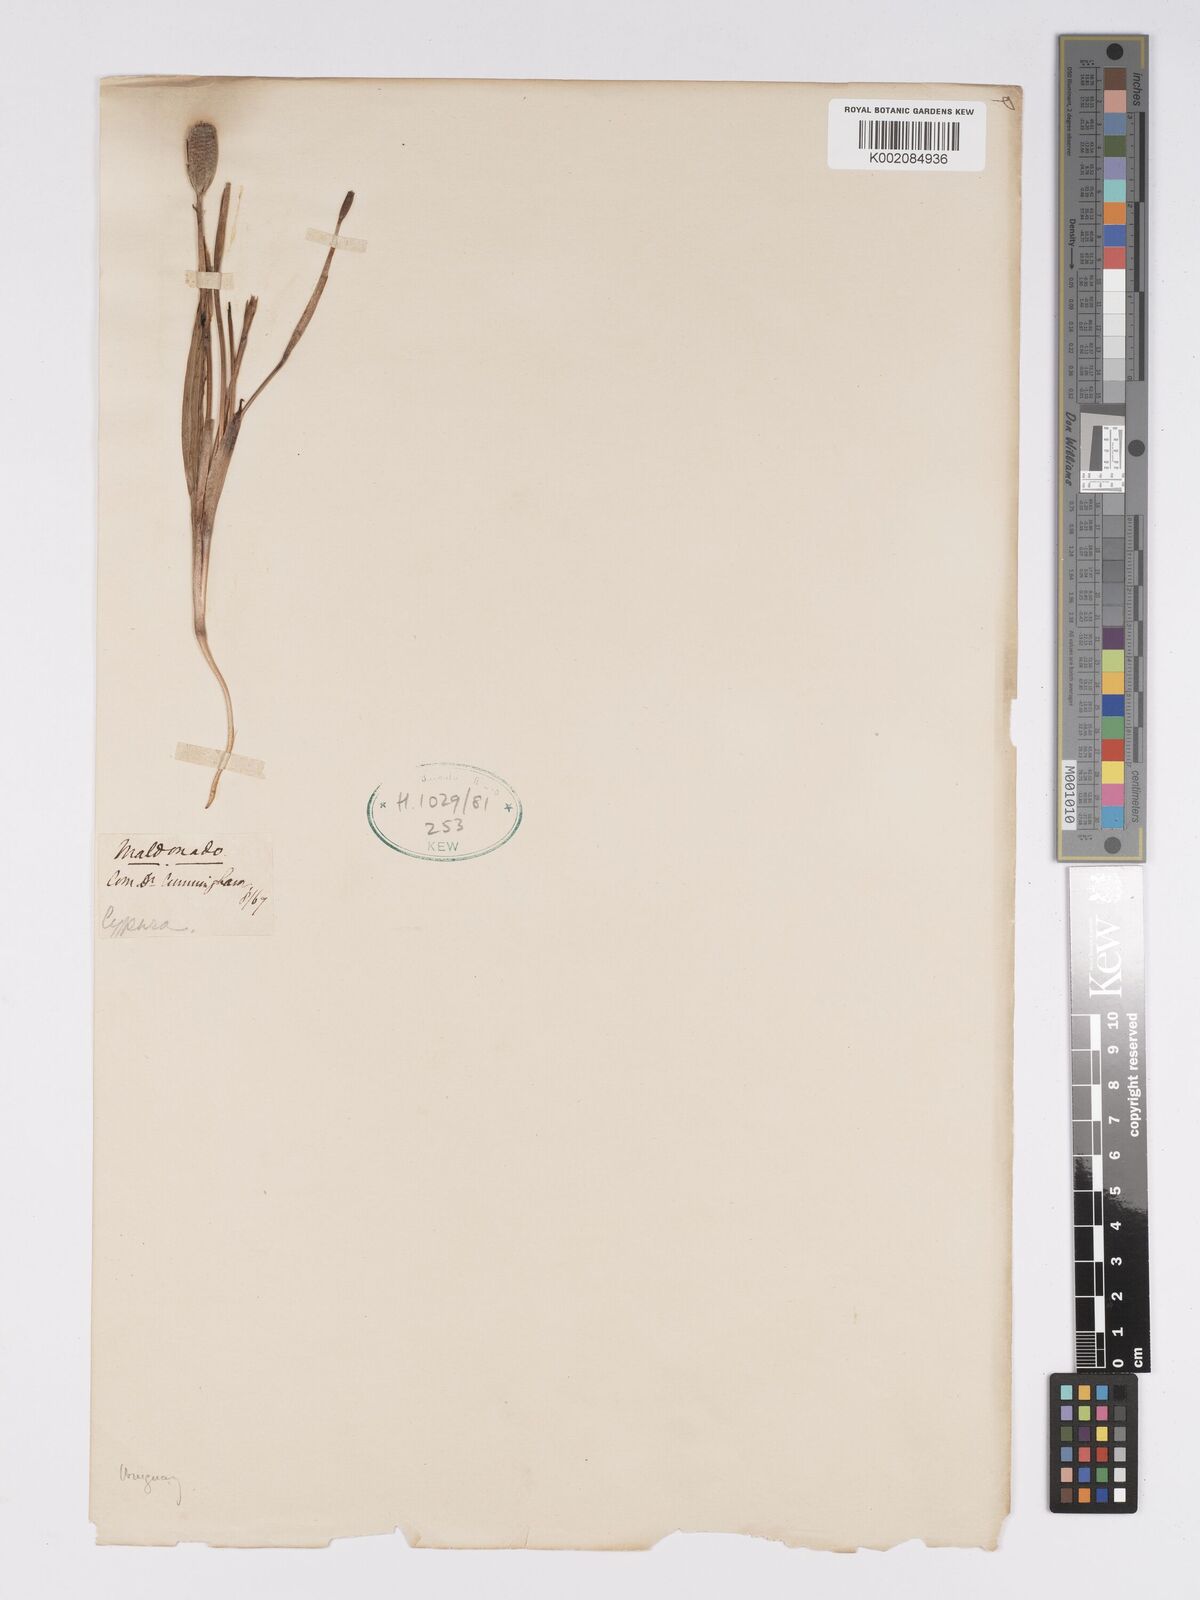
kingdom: Plantae
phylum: Tracheophyta
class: Liliopsida
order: Asparagales
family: Iridaceae
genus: Cipura
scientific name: Cipura paludosa
